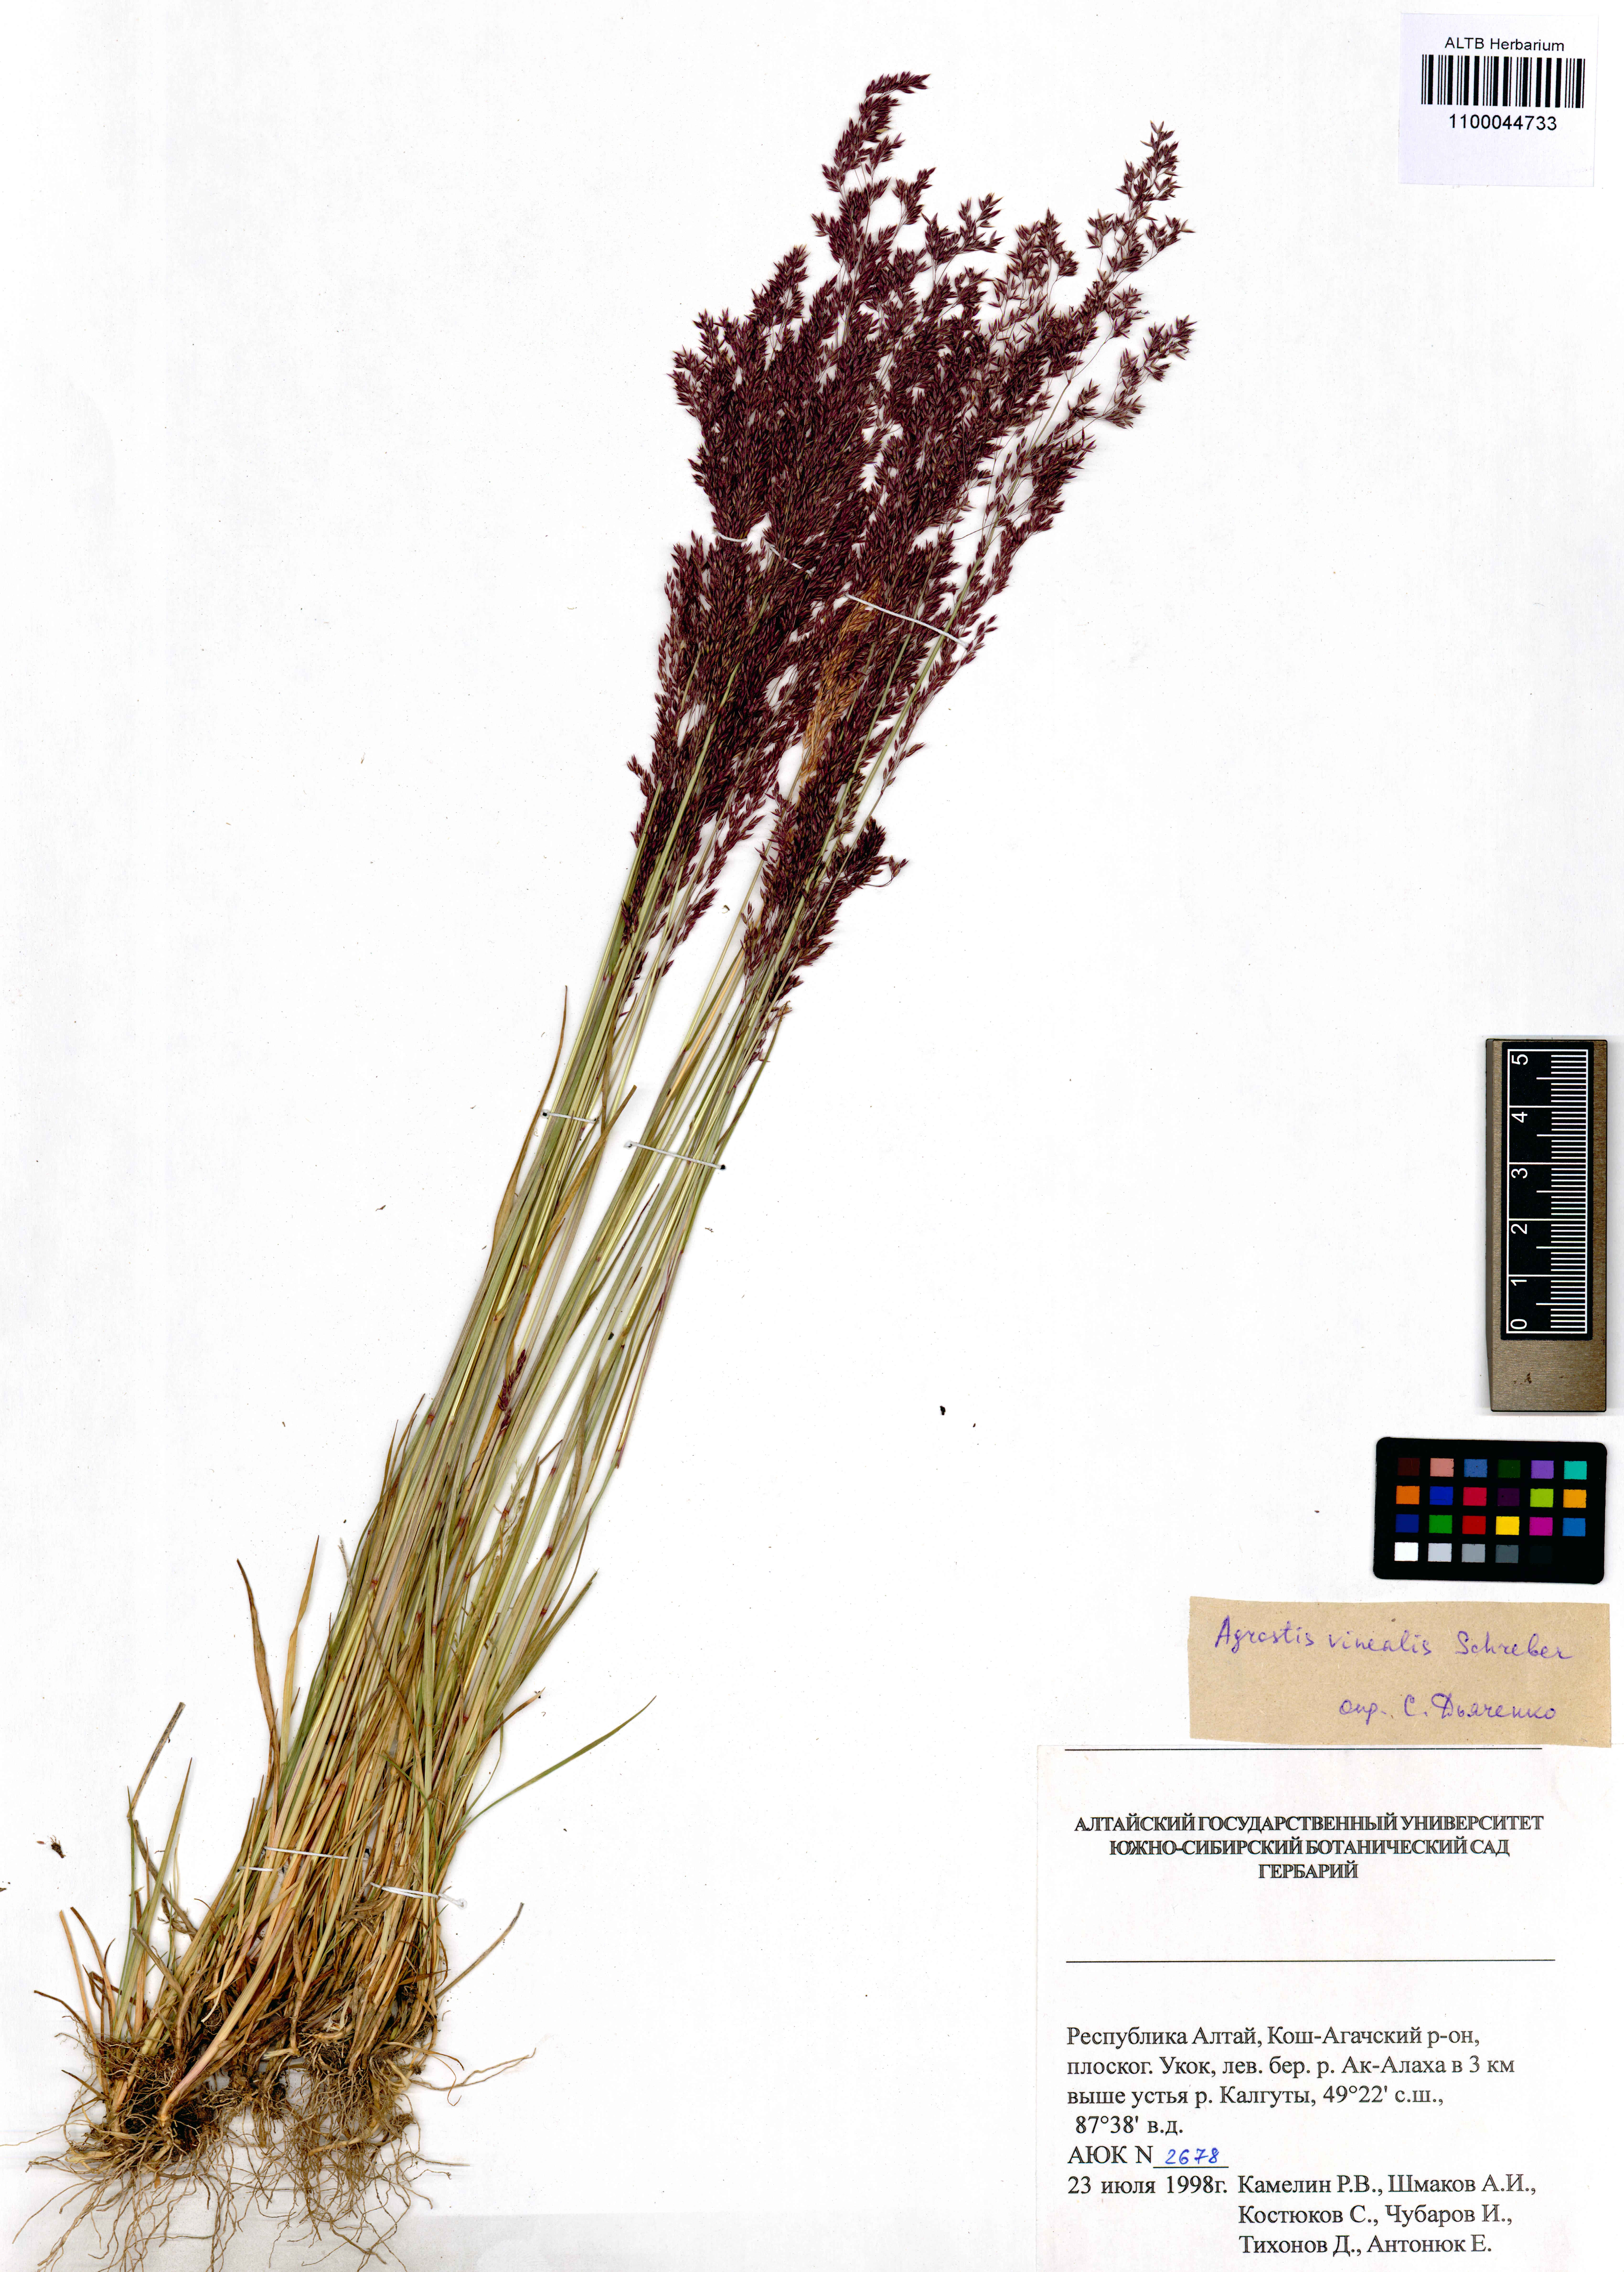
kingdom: Plantae
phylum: Tracheophyta
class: Liliopsida
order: Poales
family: Poaceae
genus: Agrostis
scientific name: Agrostis vinealis
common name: Brown bent
